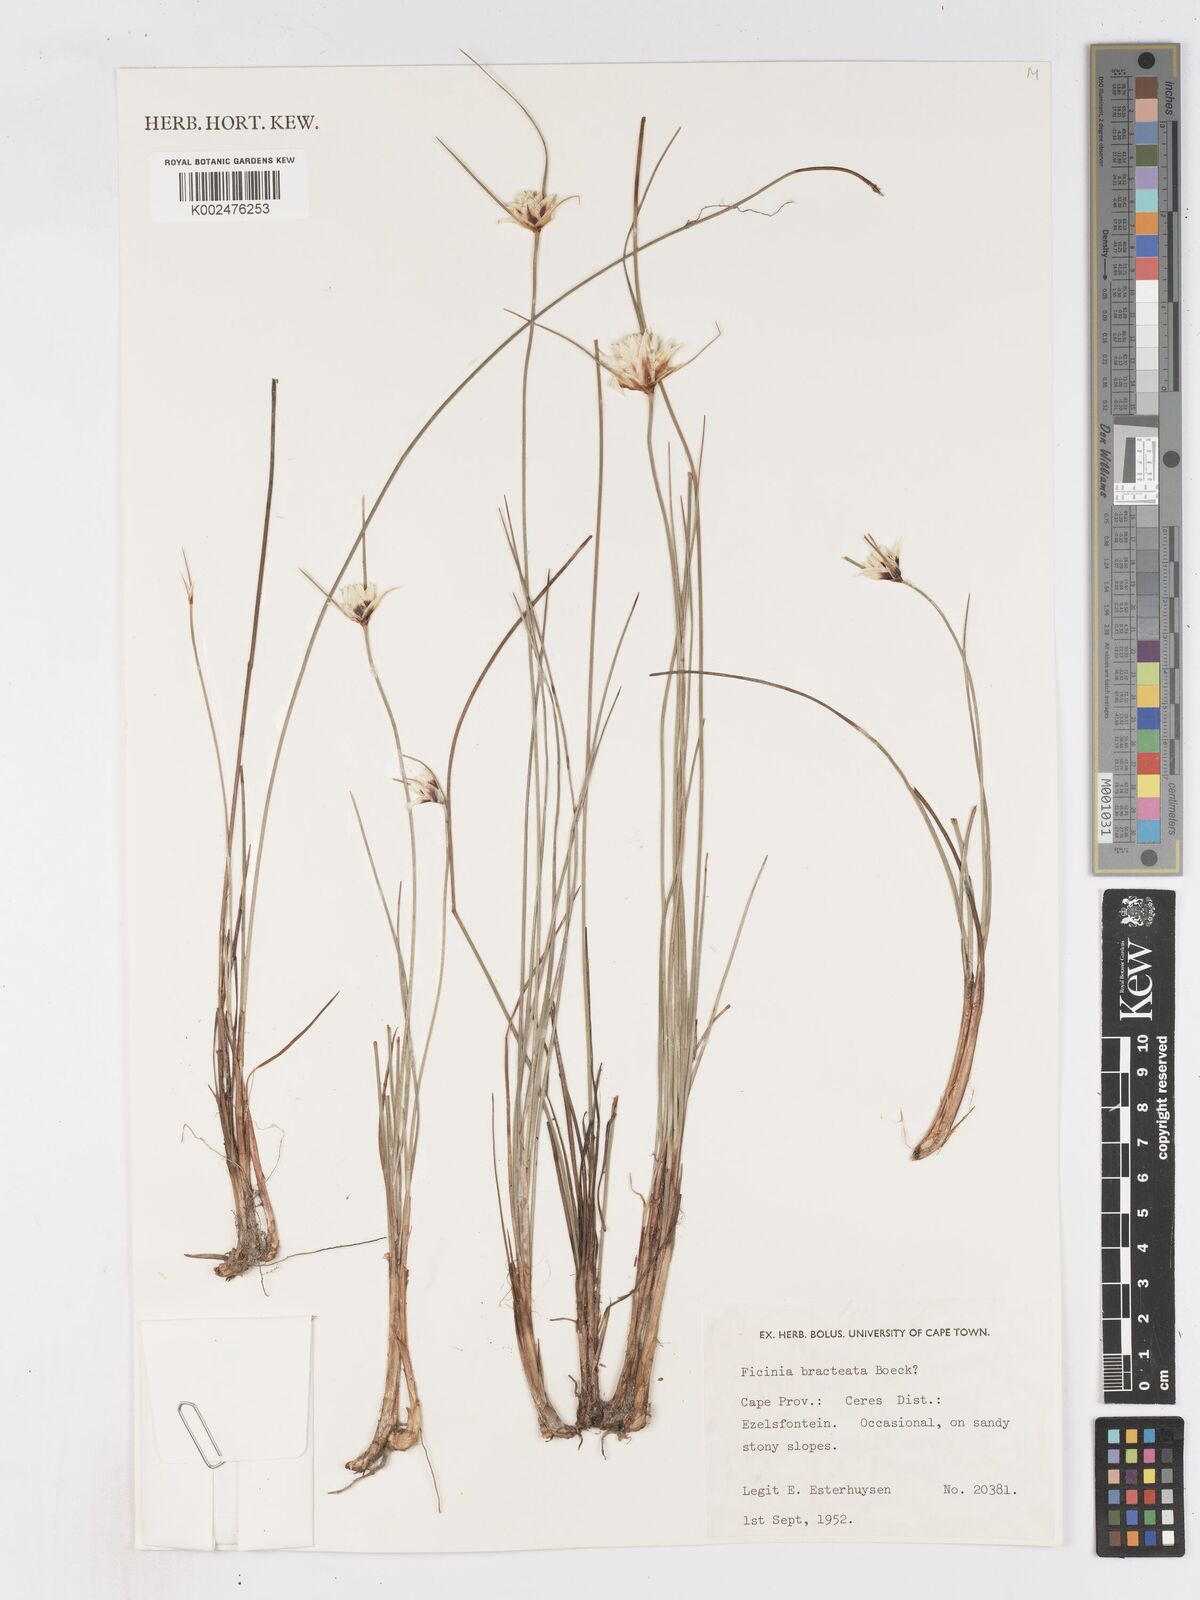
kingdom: Plantae
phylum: Tracheophyta
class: Liliopsida
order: Poales
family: Cyperaceae
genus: Ficinia
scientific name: Ficinia nigrescens
